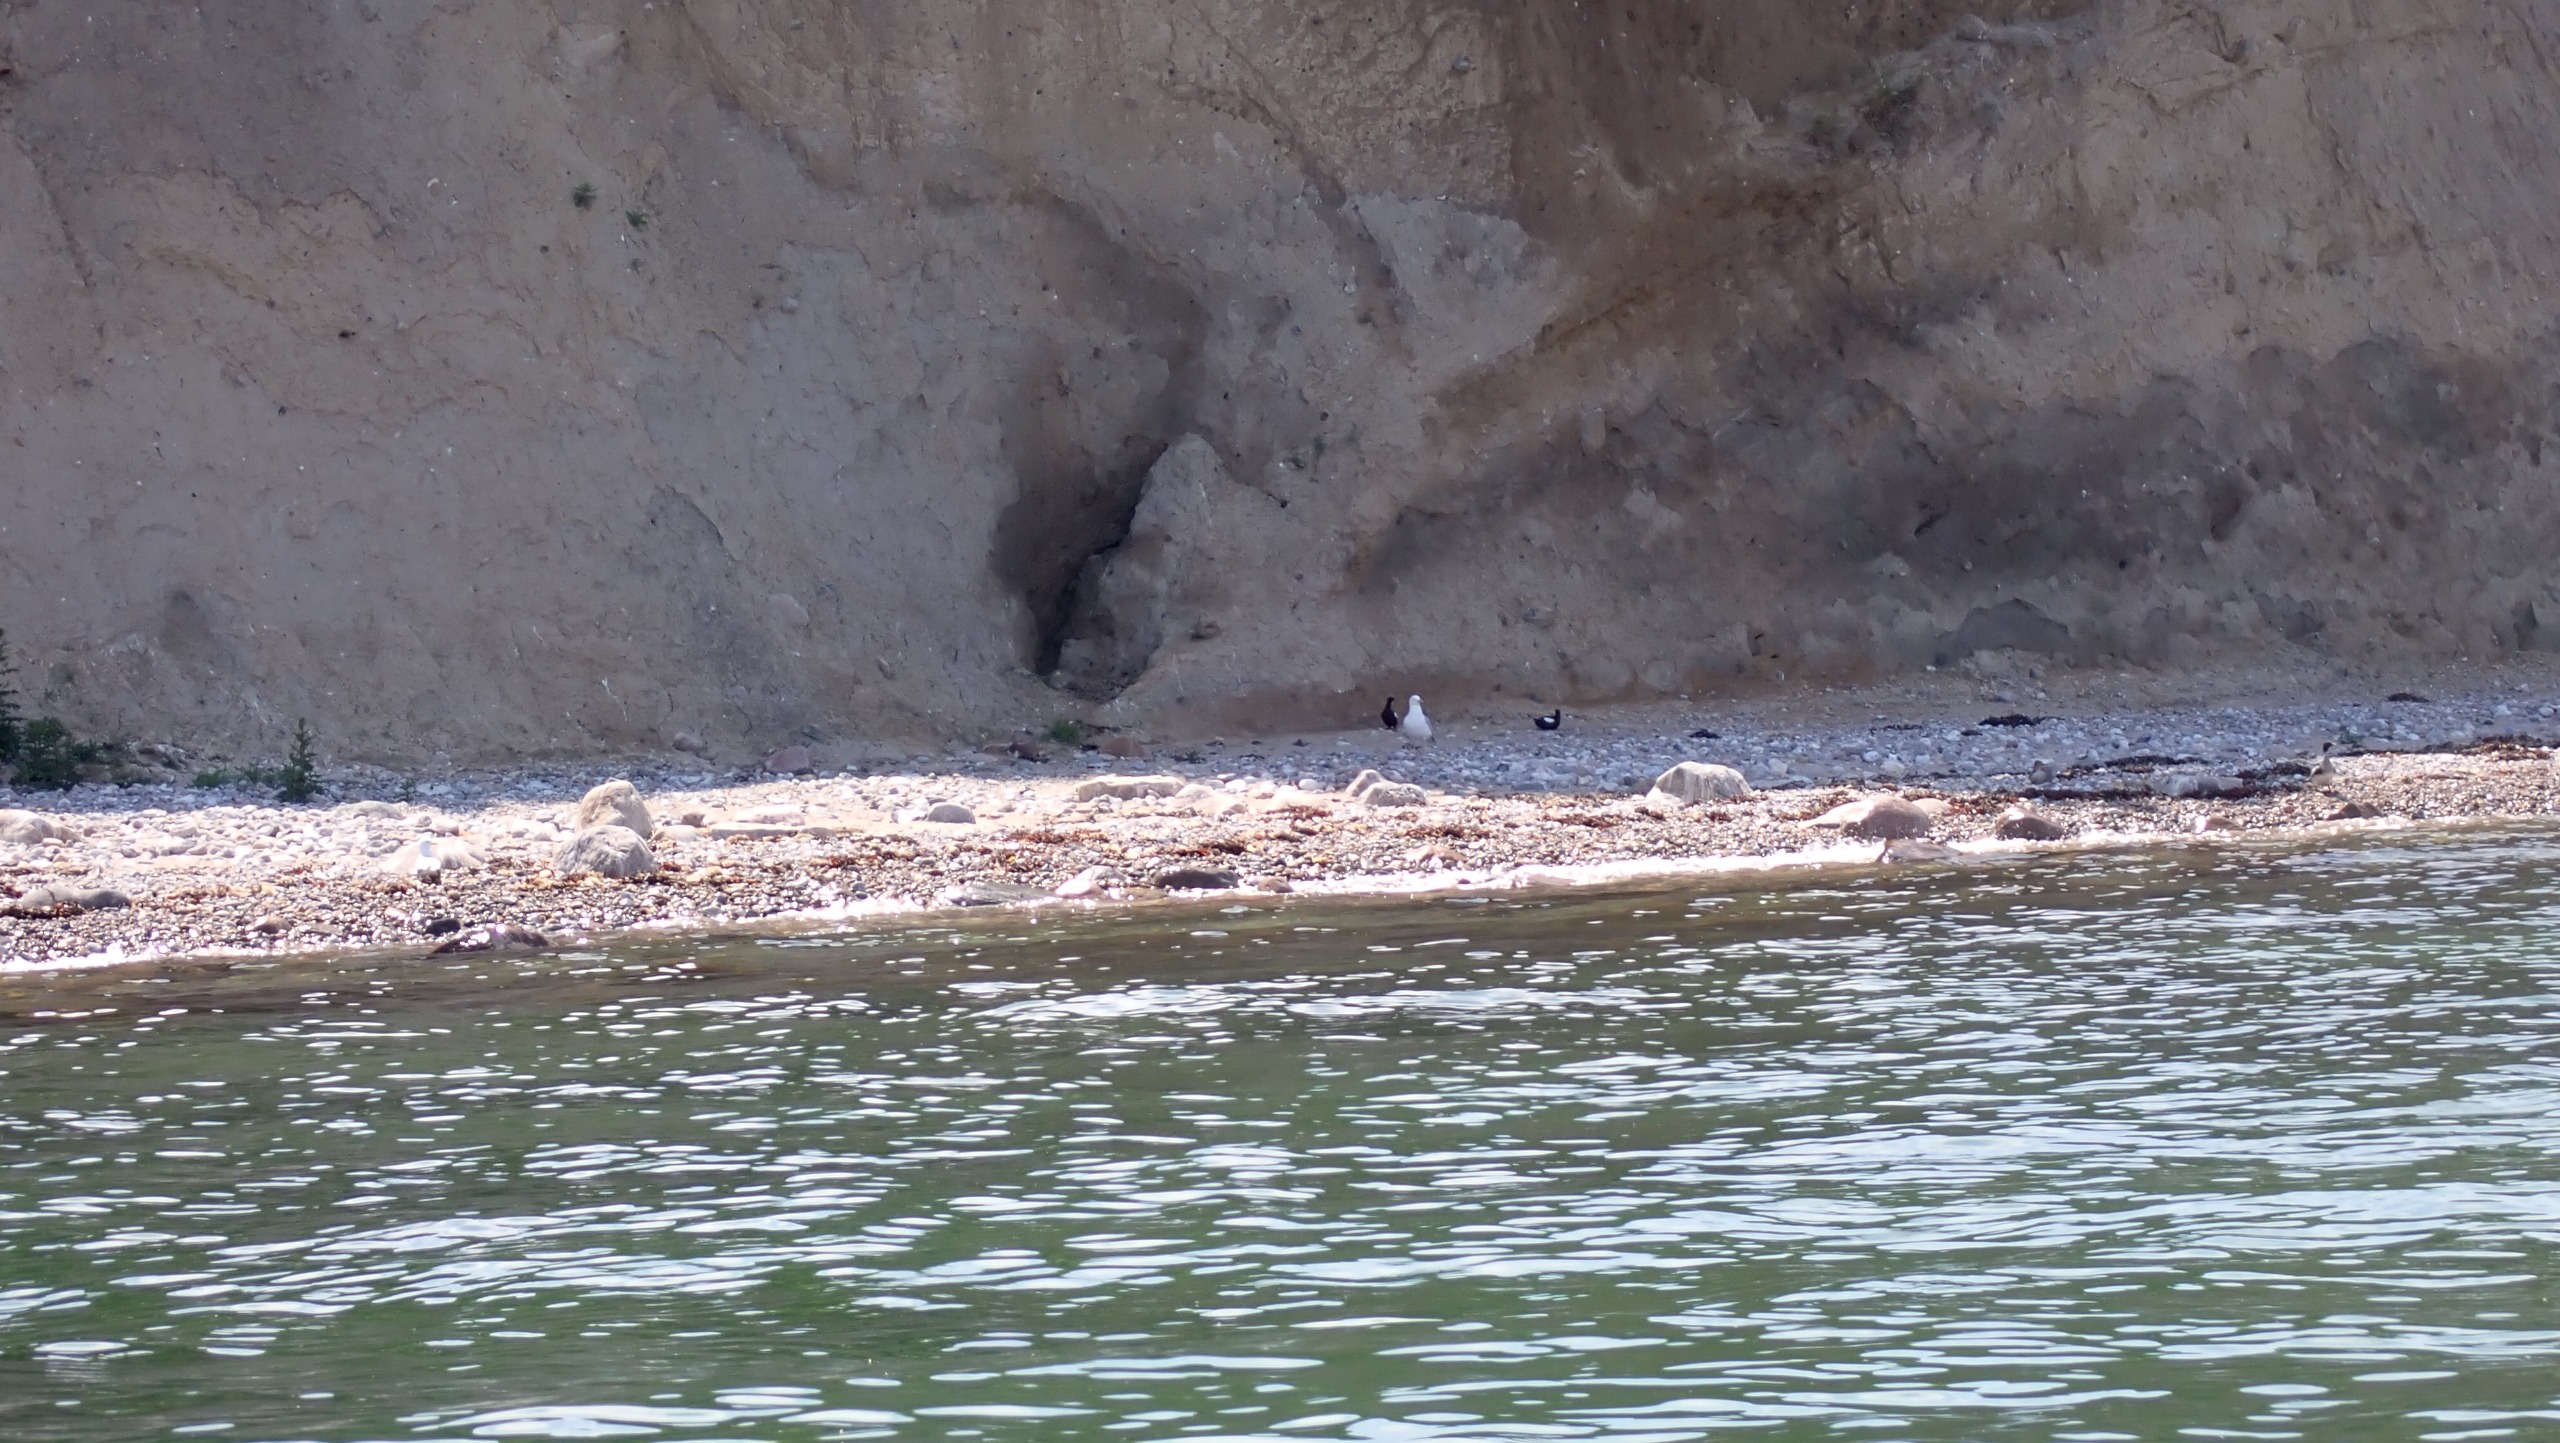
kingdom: Animalia
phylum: Chordata
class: Aves
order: Charadriiformes
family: Alcidae
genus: Cepphus
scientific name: Cepphus grylle
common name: Tejst
